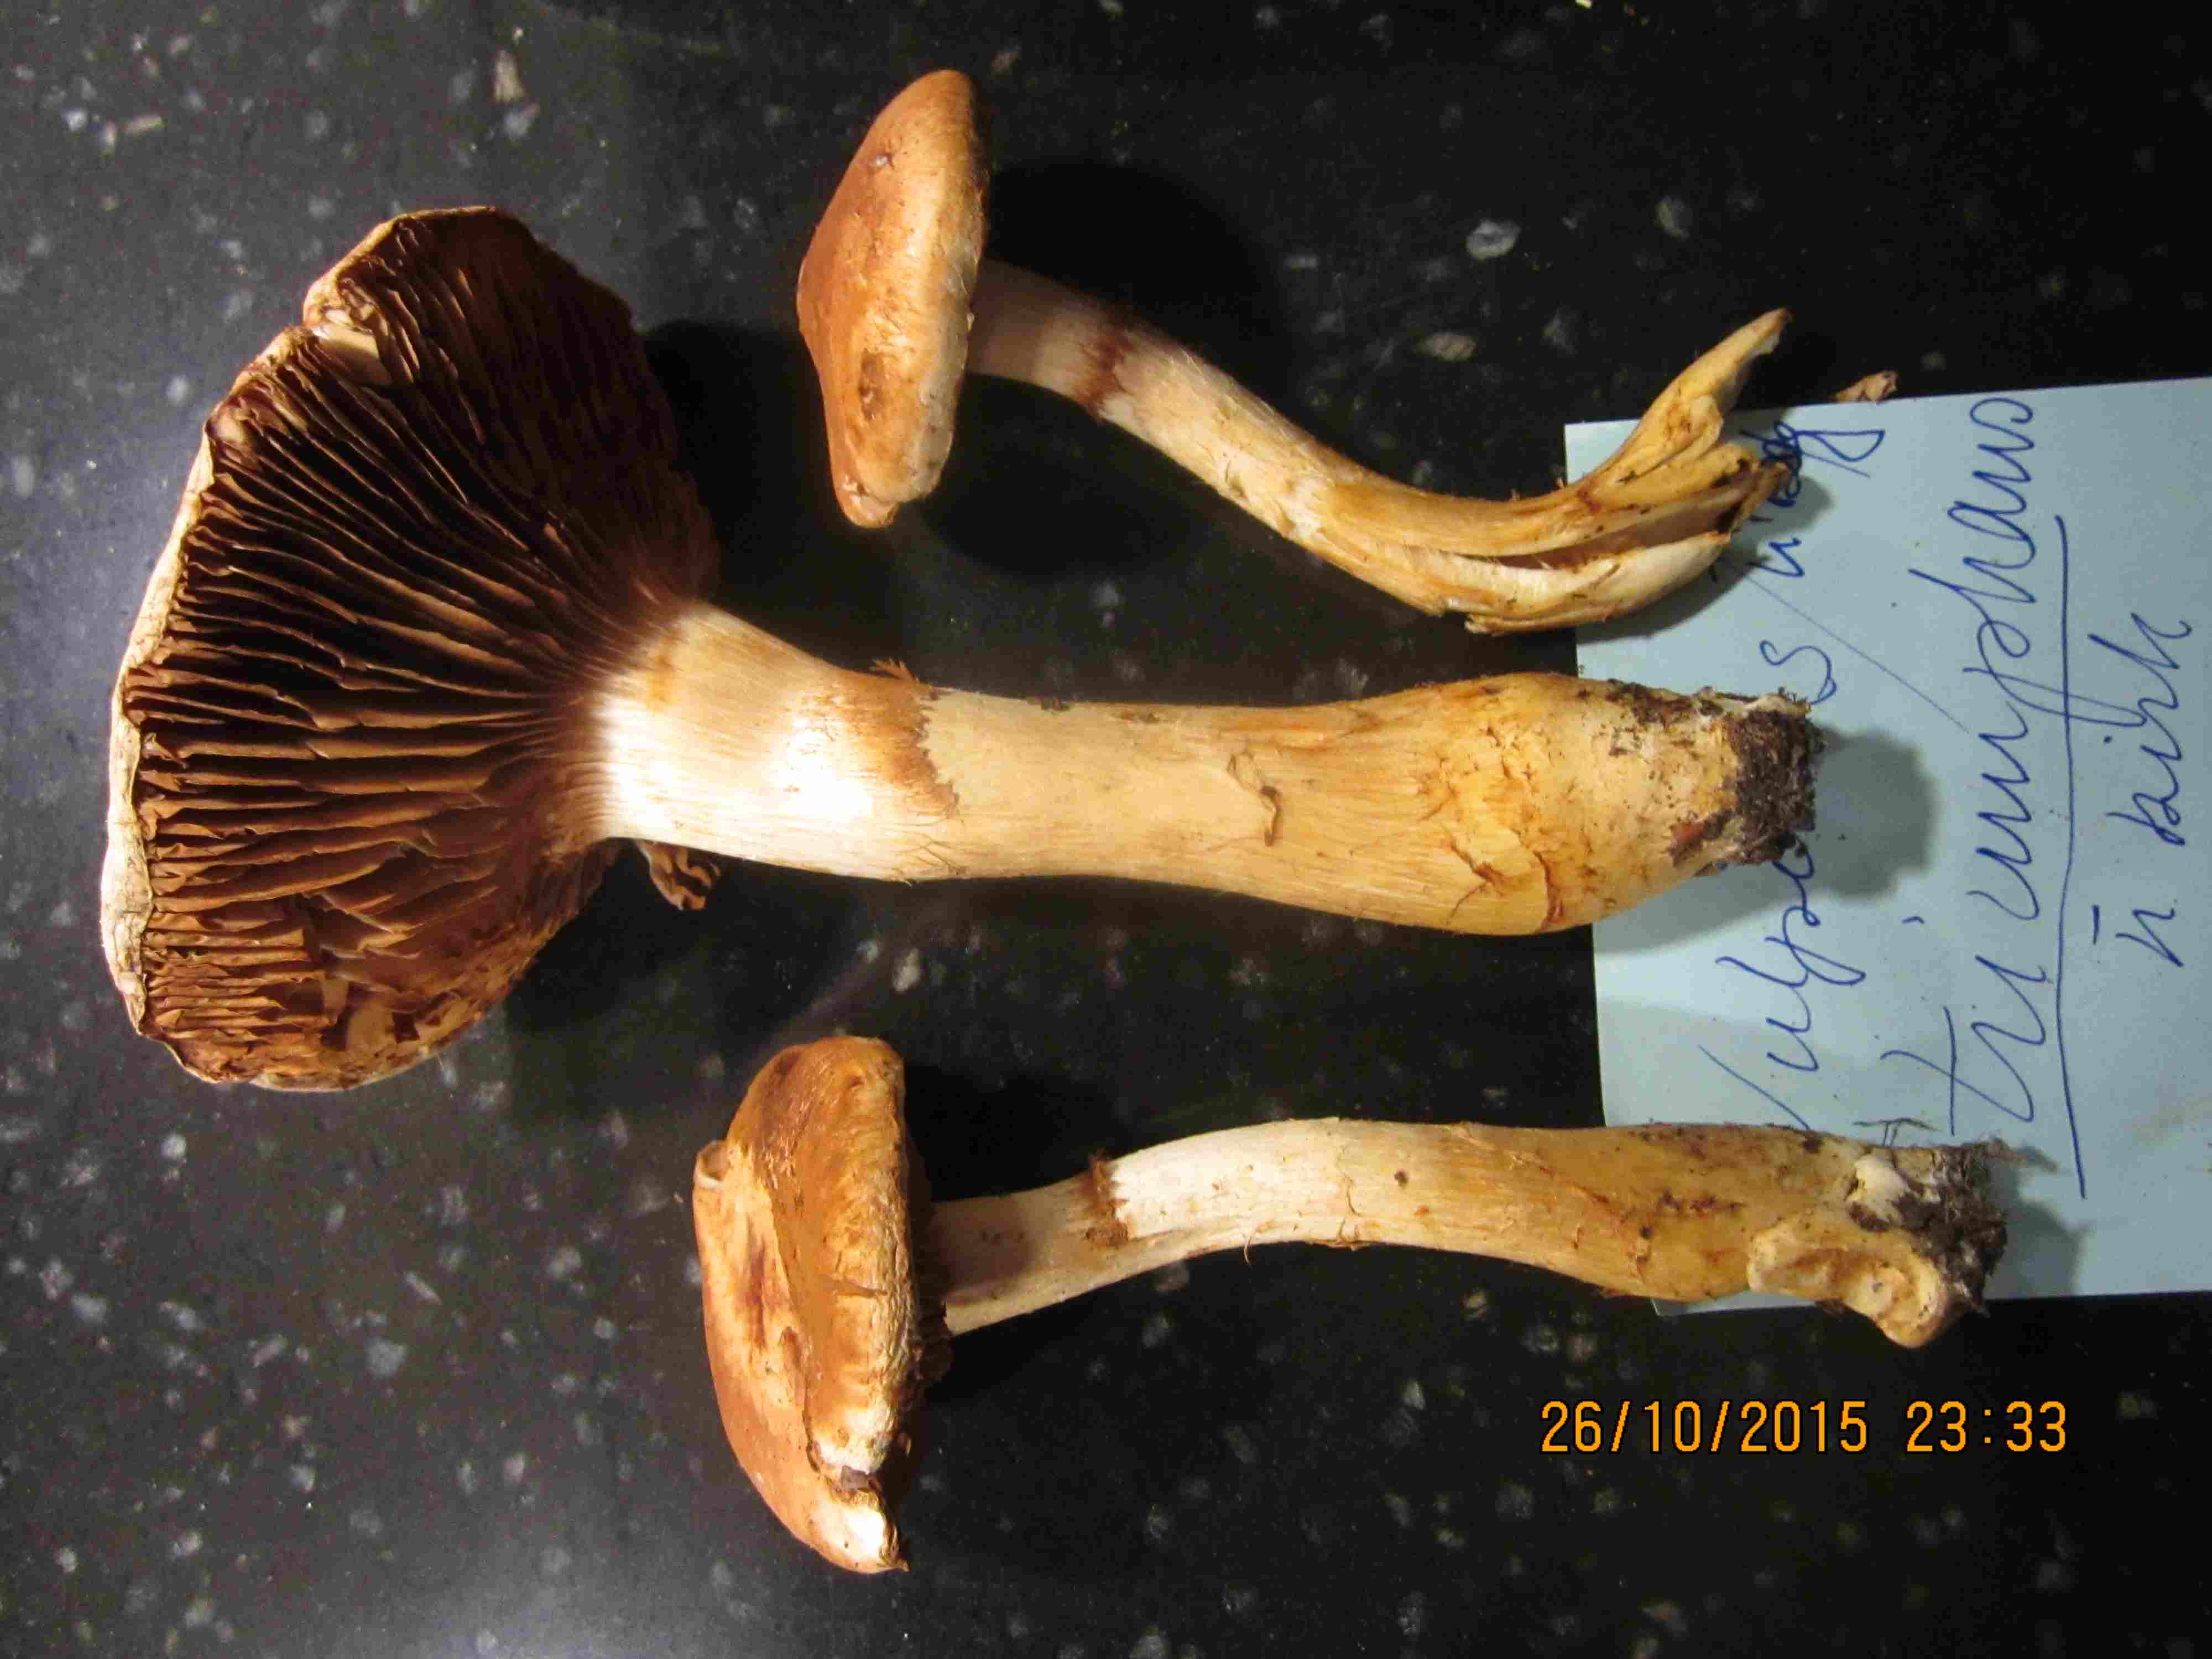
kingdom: Fungi
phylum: Basidiomycota
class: Agaricomycetes
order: Agaricales
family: Cortinariaceae
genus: Phlegmacium
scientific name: Phlegmacium vulpinum
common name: ringbæltet slørhat
